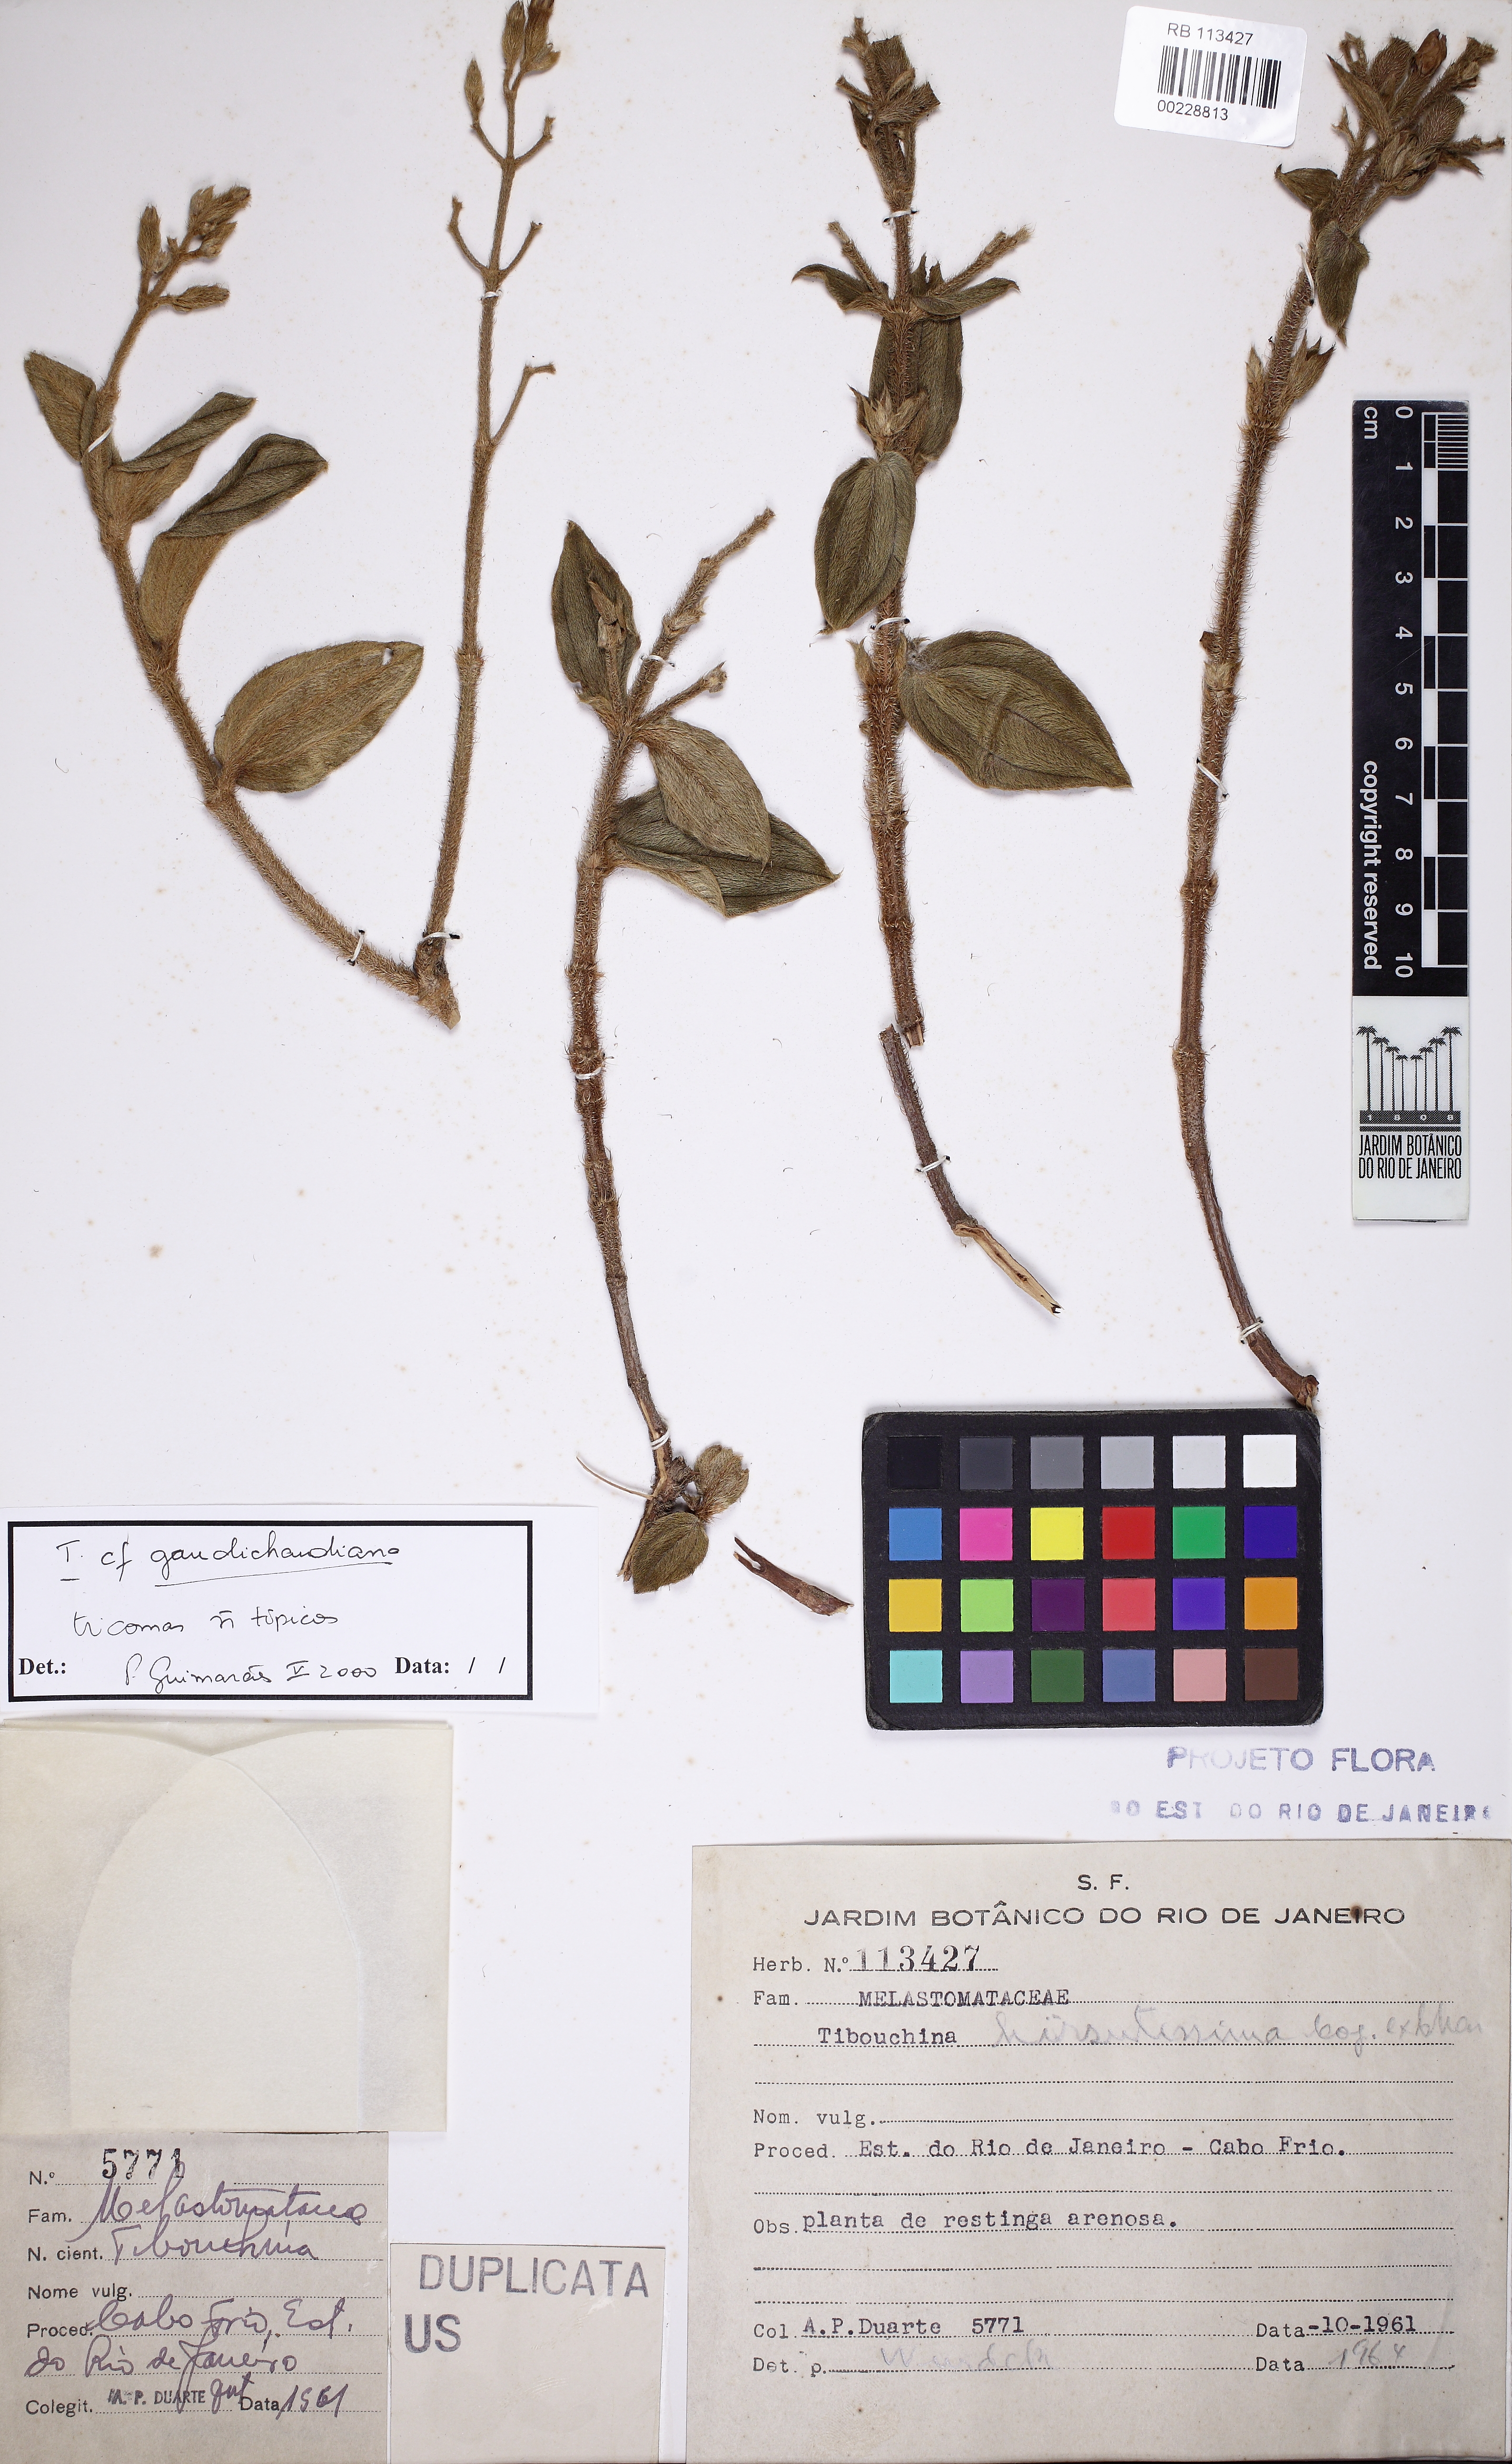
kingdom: Plantae
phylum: Tracheophyta
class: Magnoliopsida
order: Myrtales
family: Melastomataceae
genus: Pleroma
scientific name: Pleroma clavatum
